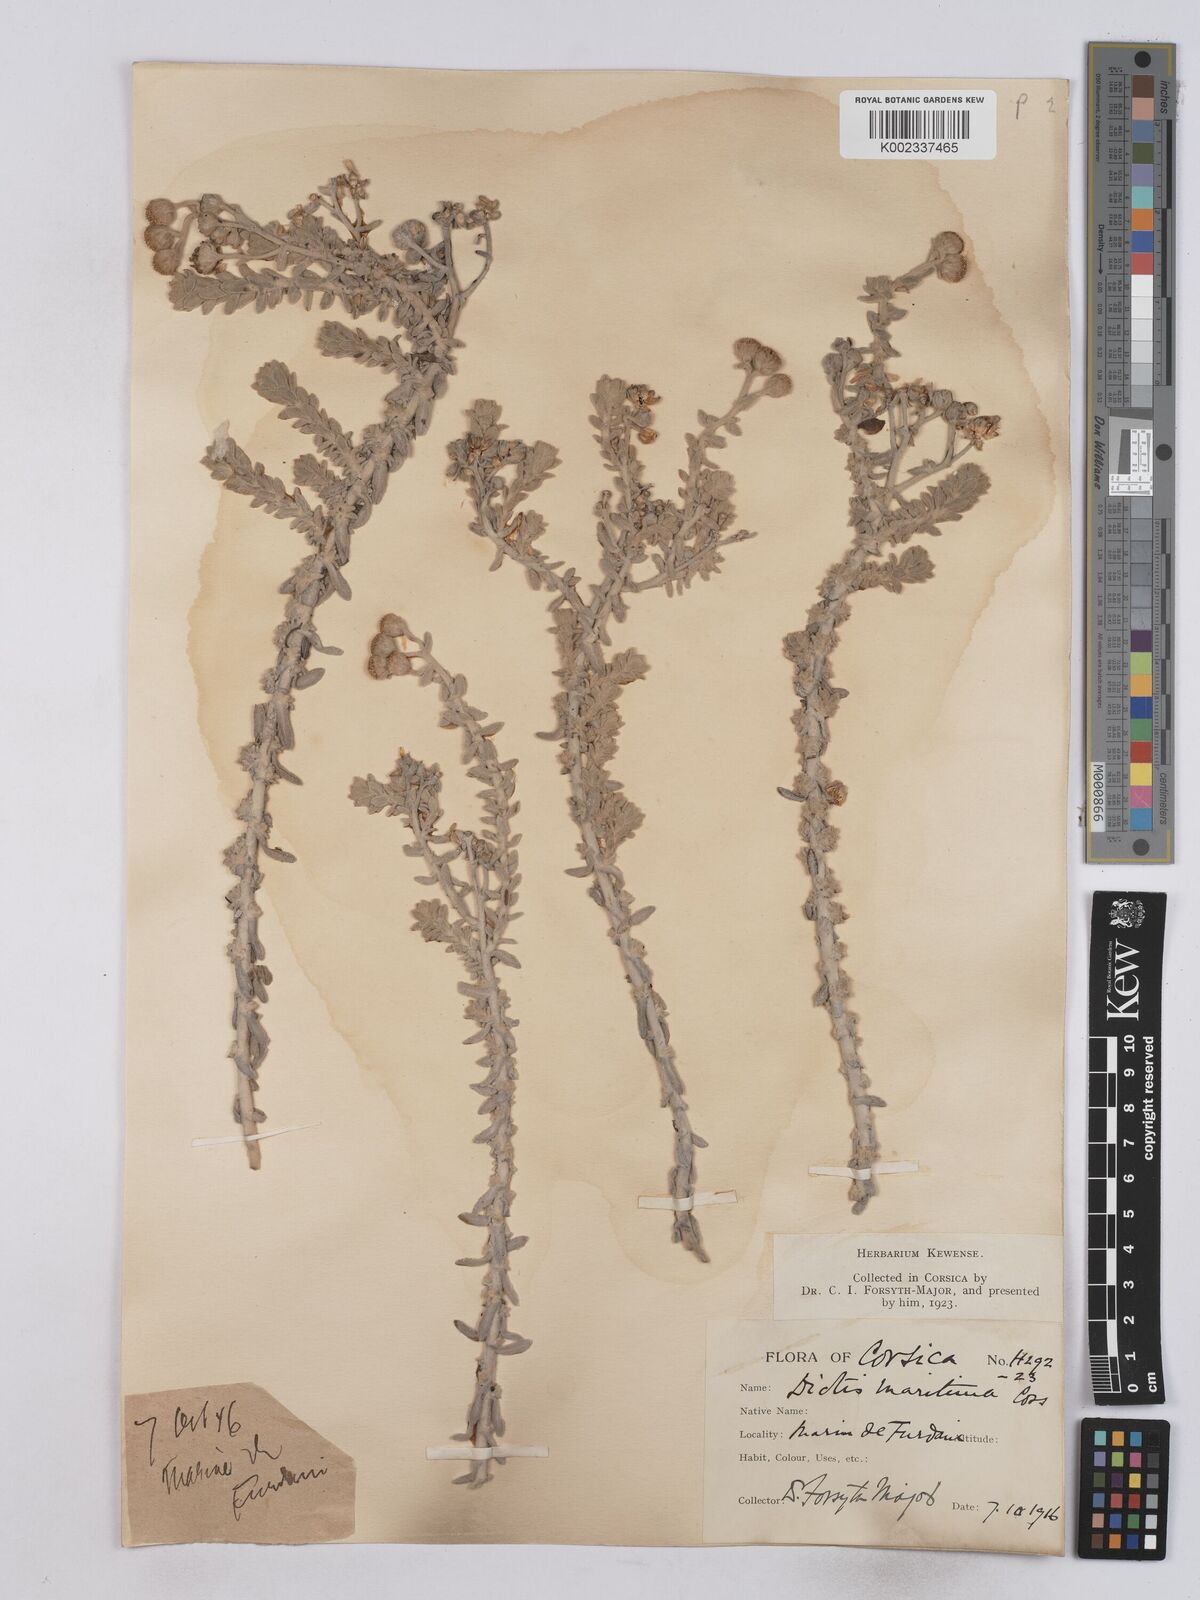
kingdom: Plantae
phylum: Tracheophyta
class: Magnoliopsida
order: Asterales
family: Asteraceae
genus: Achillea
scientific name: Achillea maritima
